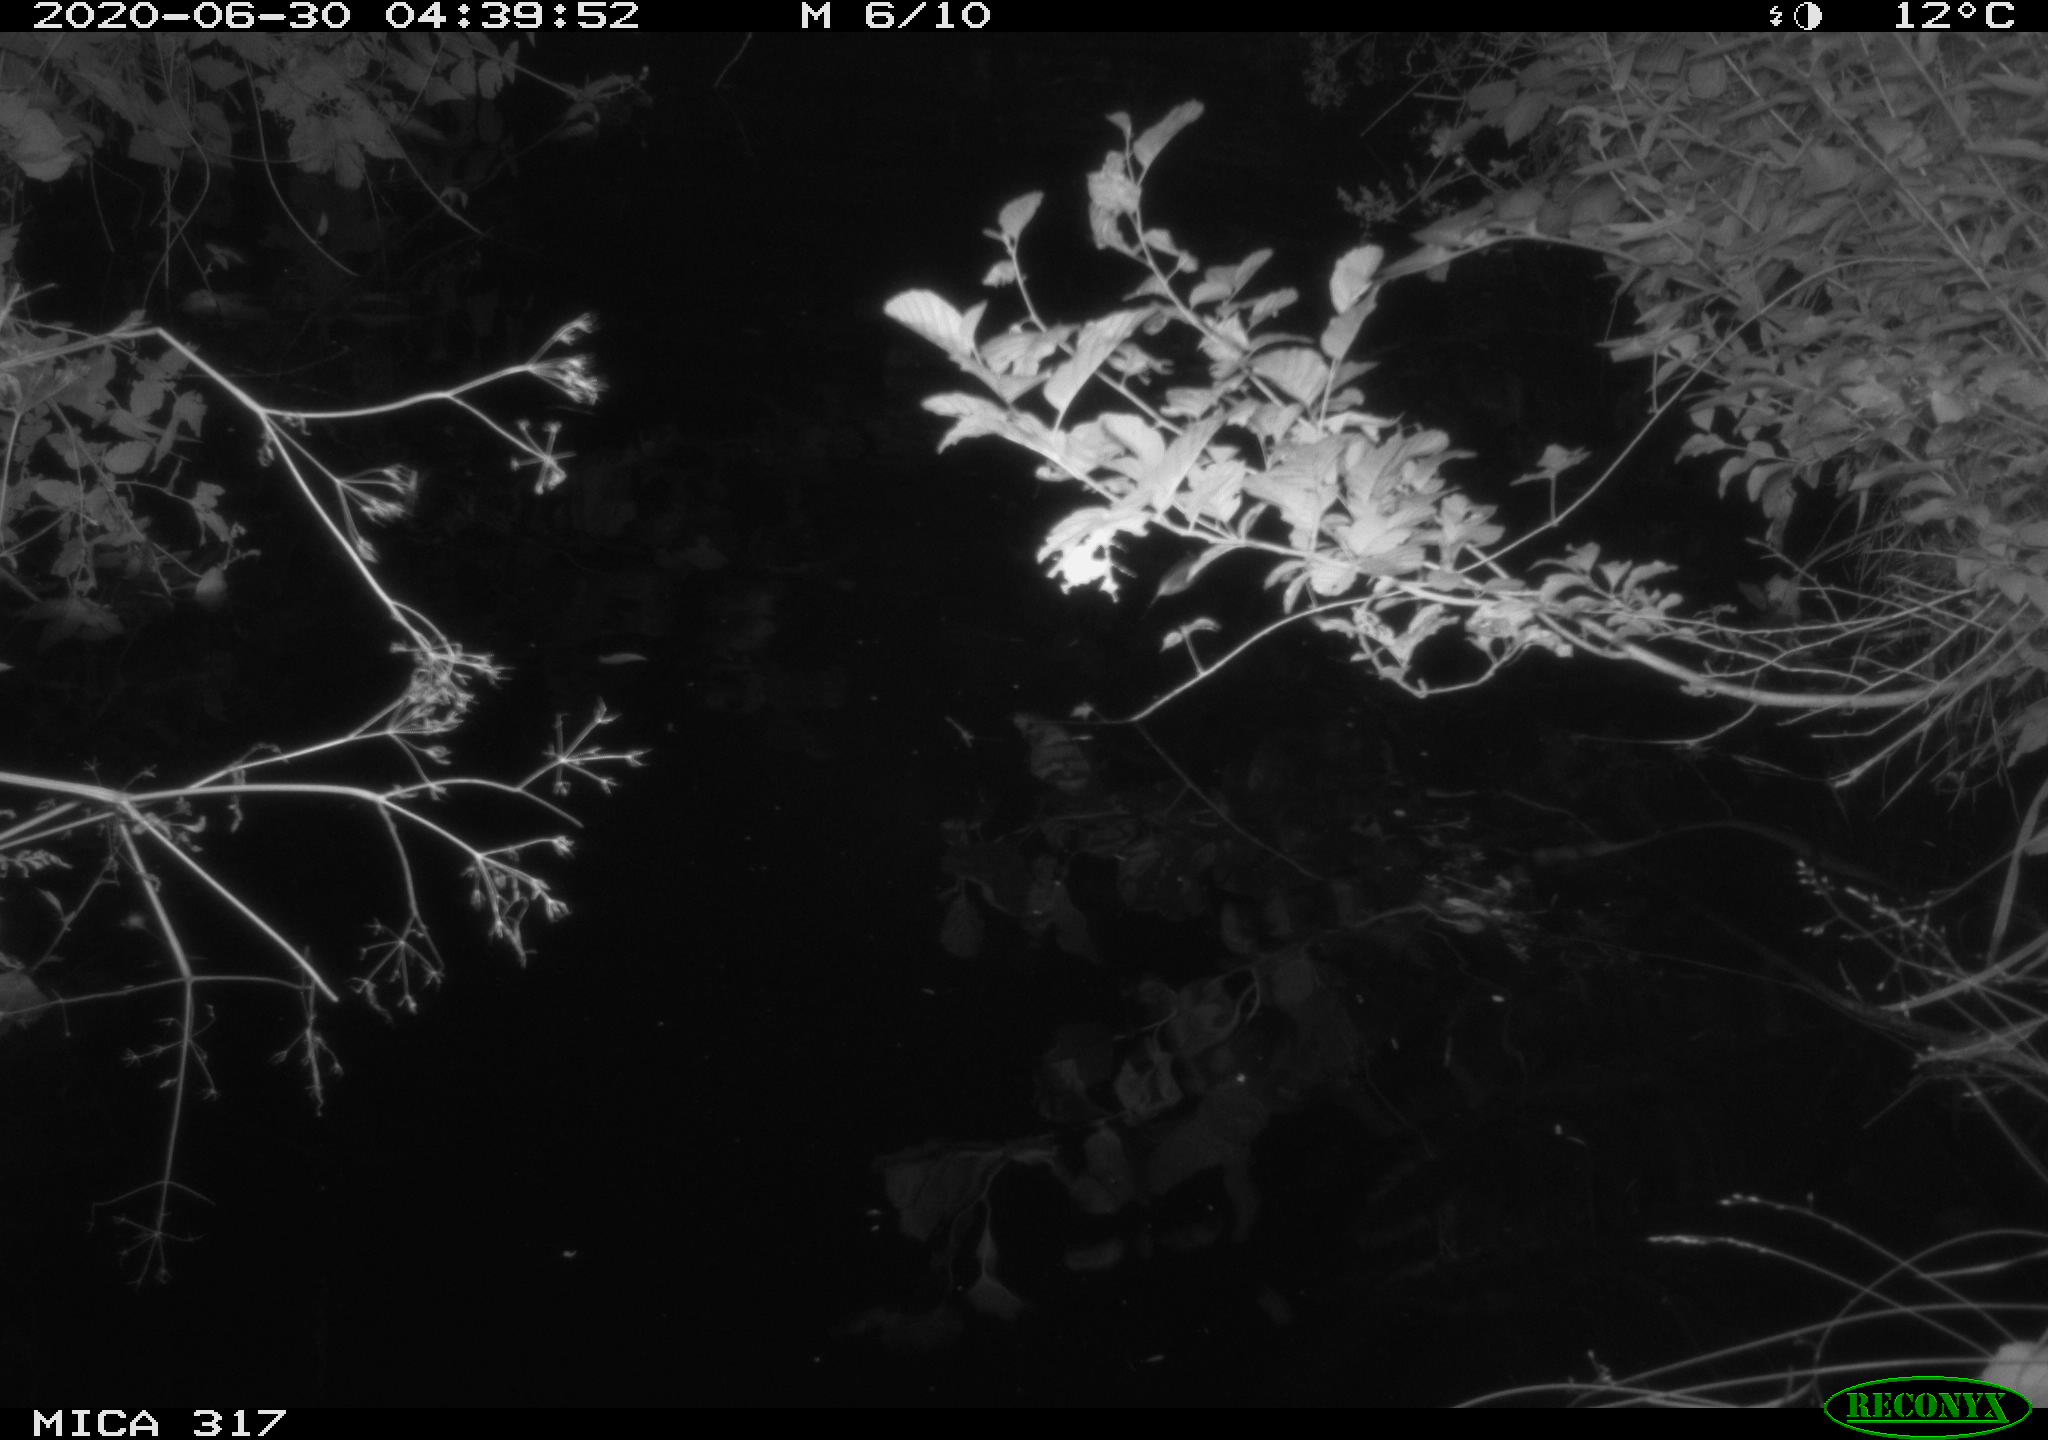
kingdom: Animalia
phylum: Chordata
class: Aves
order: Anseriformes
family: Anatidae
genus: Anas
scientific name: Anas platyrhynchos
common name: Mallard
